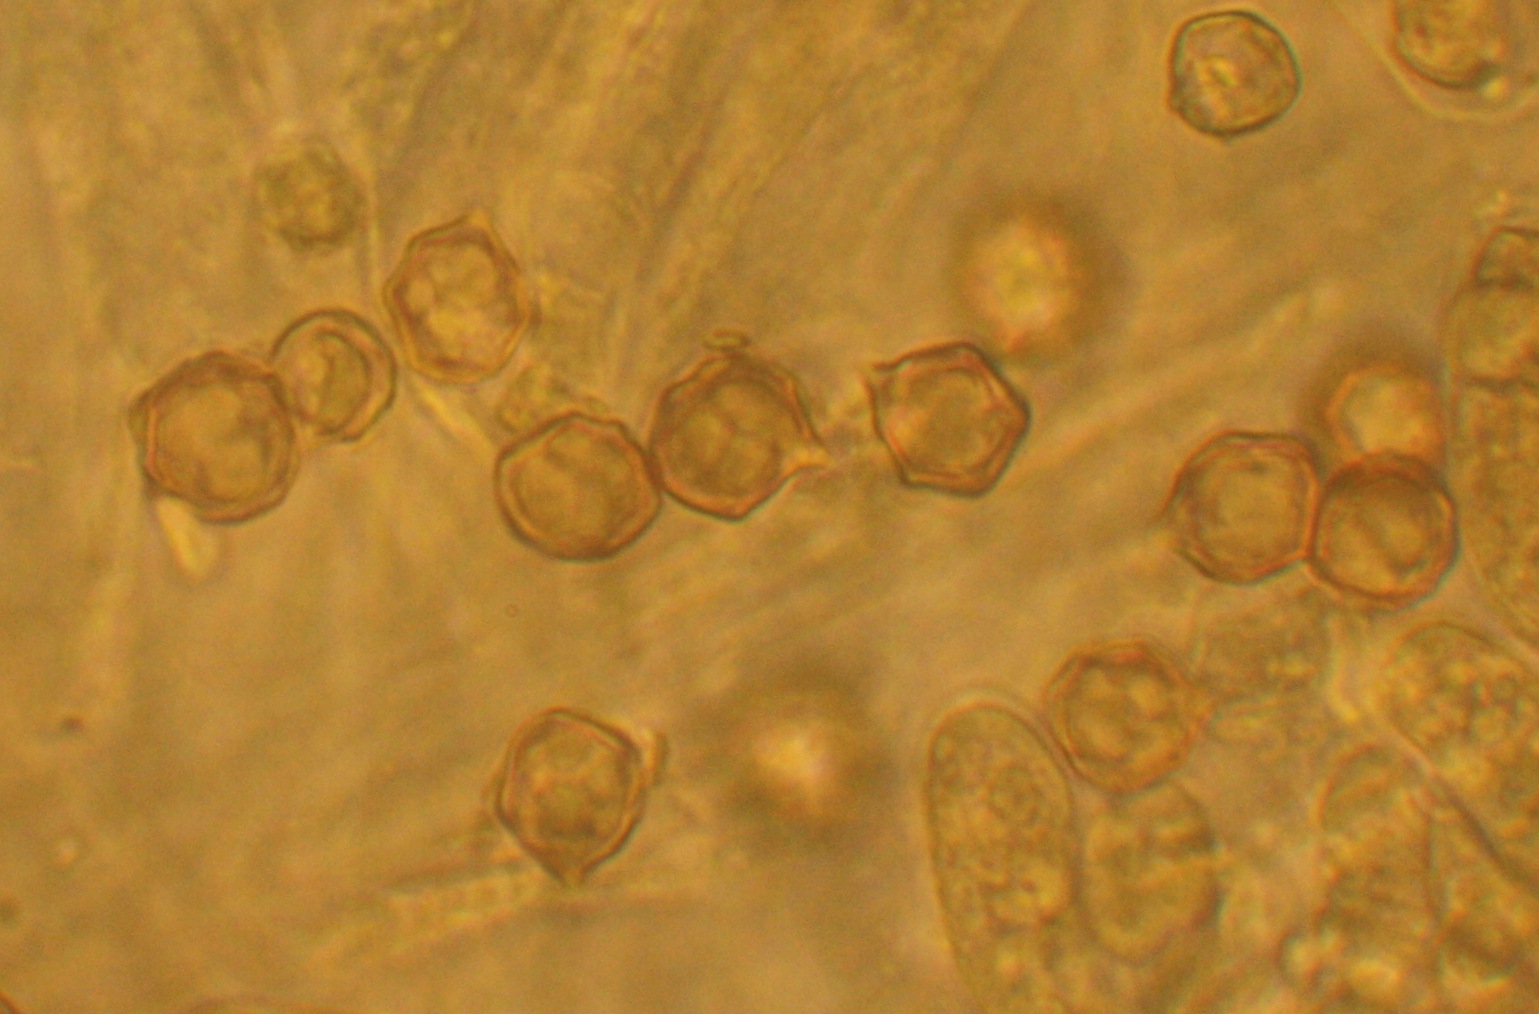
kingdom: Fungi
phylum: Basidiomycota
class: Agaricomycetes
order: Agaricales
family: Entolomataceae
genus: Entoloma
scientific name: Entoloma clypeatum
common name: flammet rødblad
